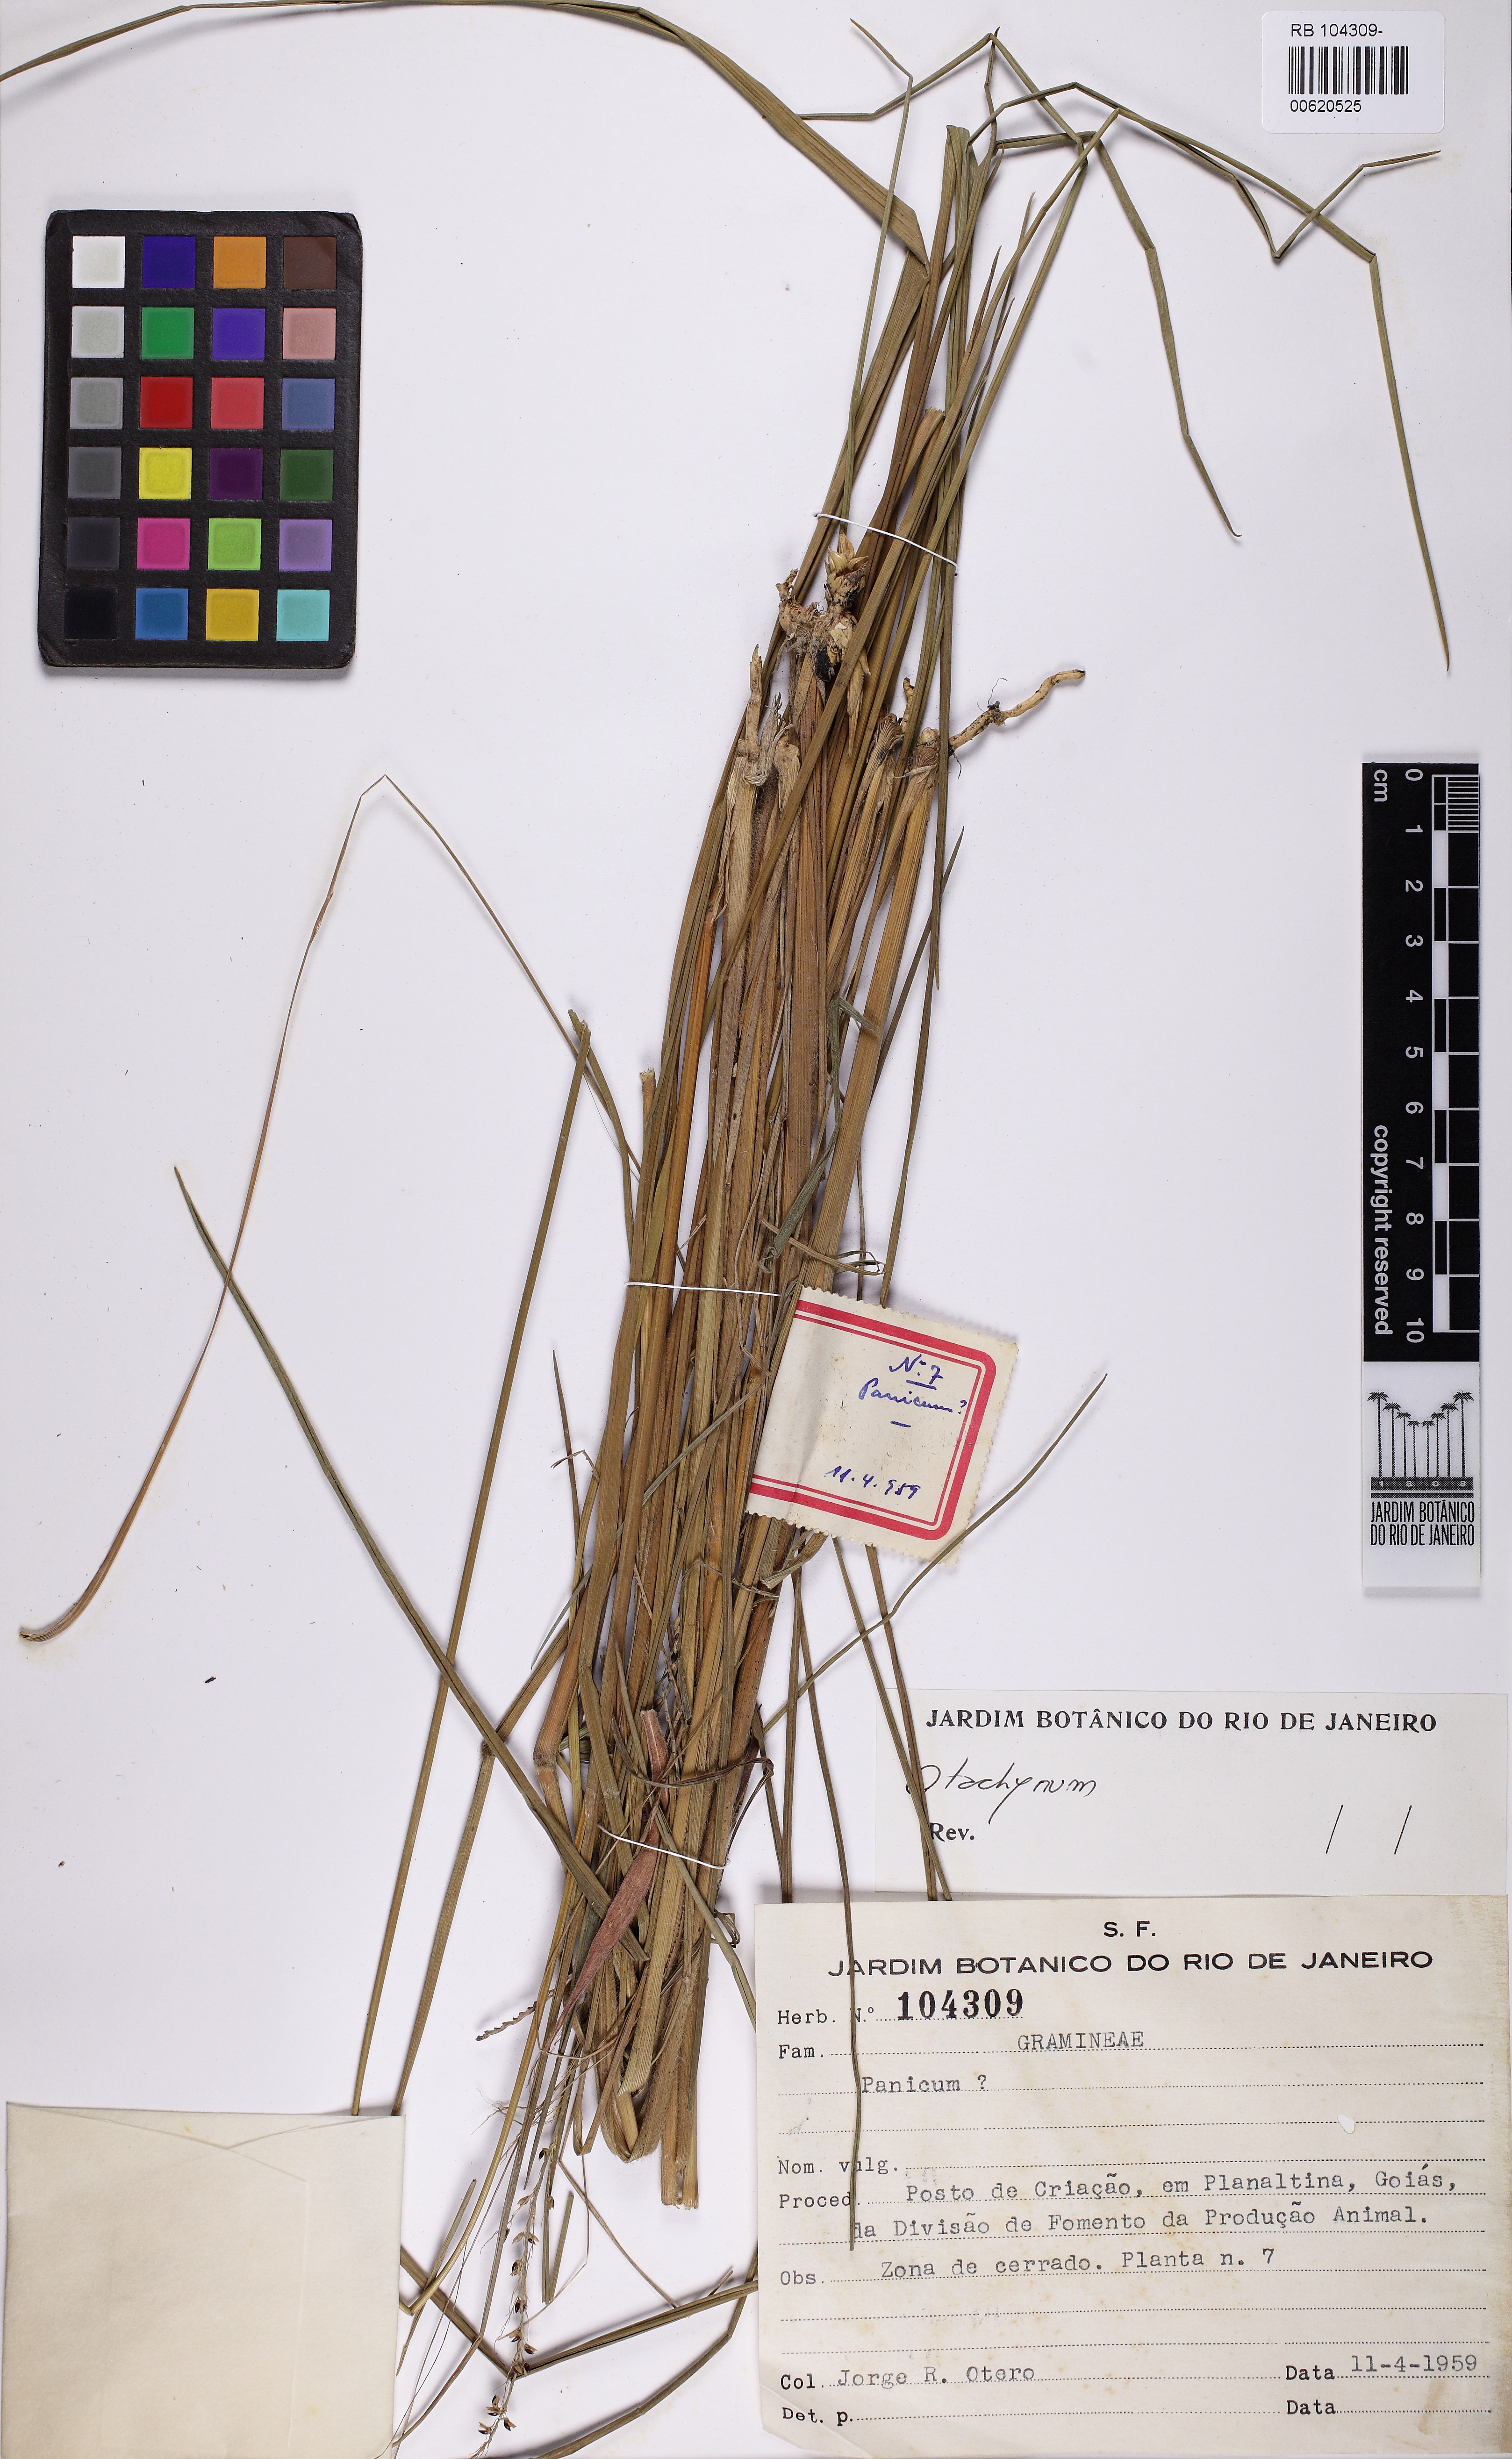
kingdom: Plantae
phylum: Tracheophyta
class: Liliopsida
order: Poales
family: Poaceae
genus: Otachyrium
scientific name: Otachyrium
